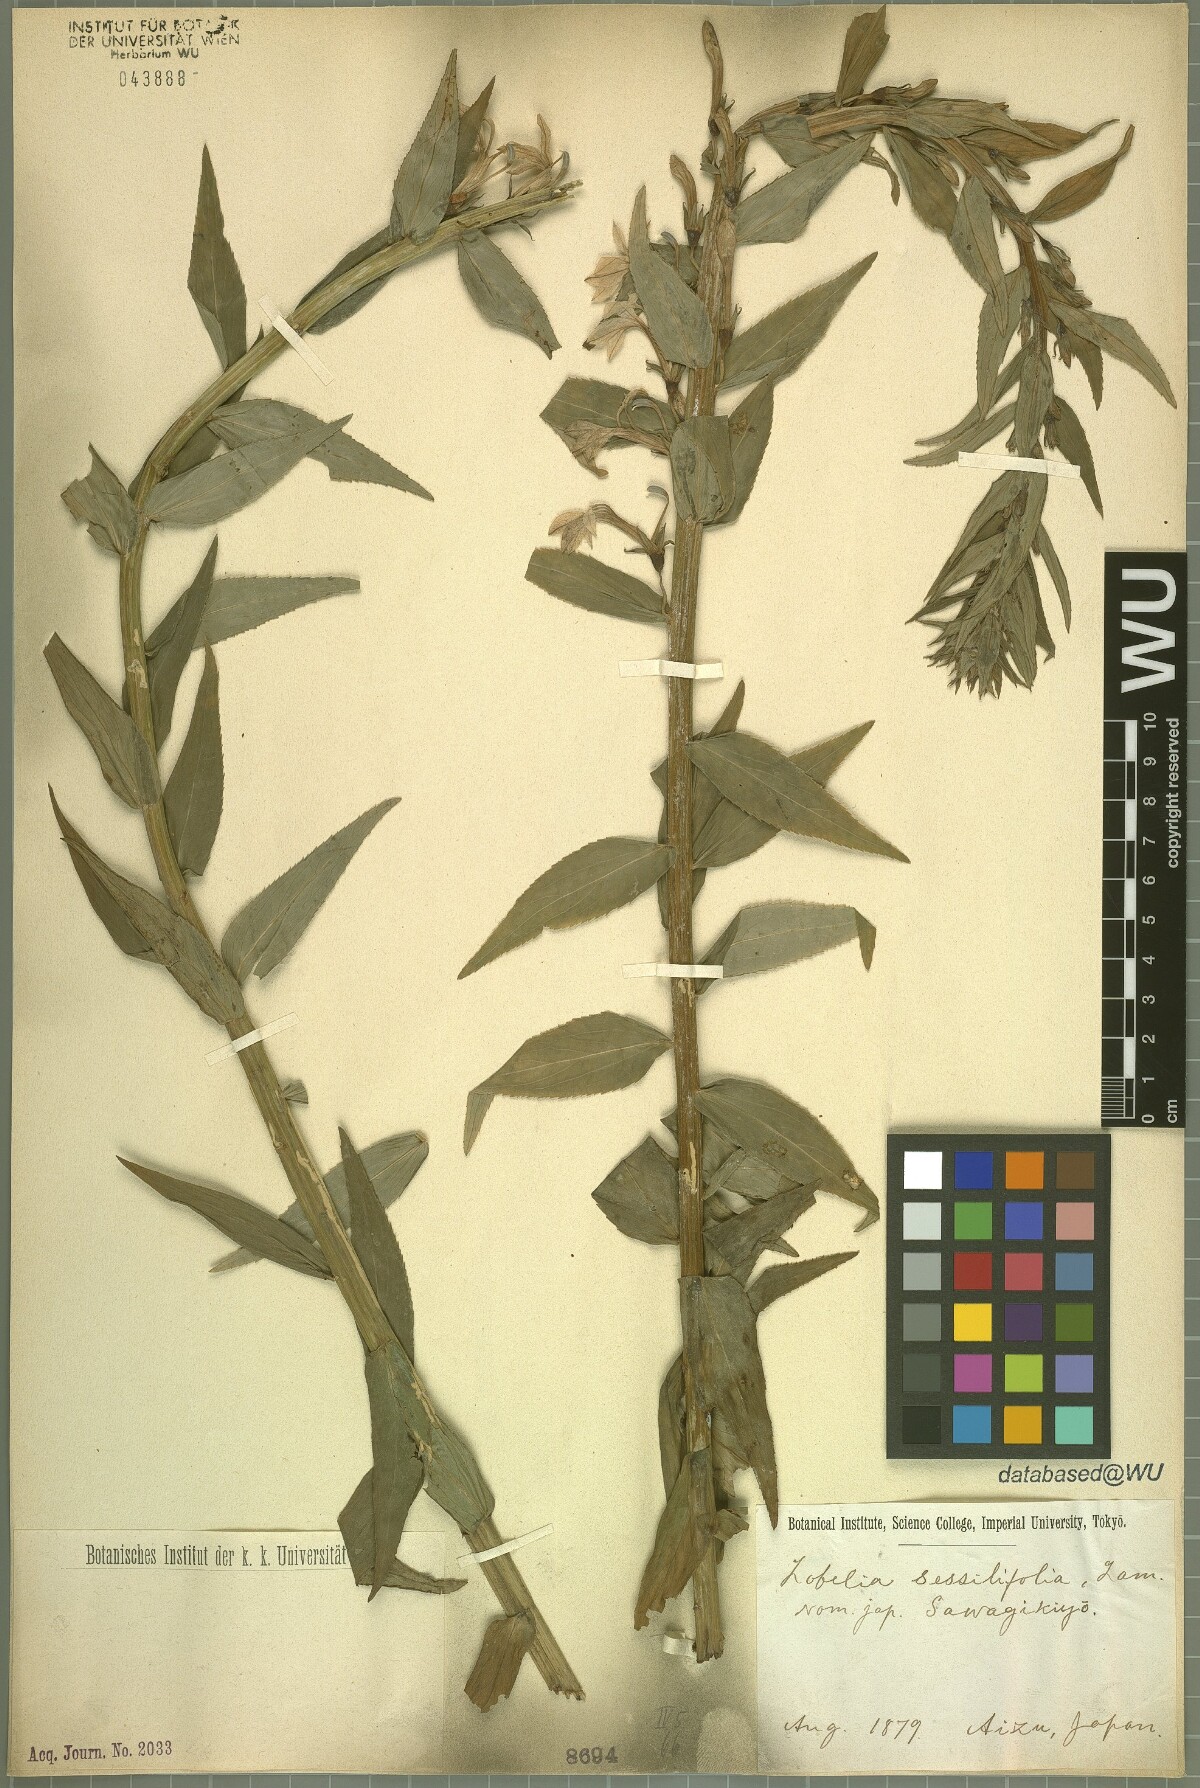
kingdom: Plantae
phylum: Tracheophyta
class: Magnoliopsida
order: Asterales
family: Campanulaceae
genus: Lobelia
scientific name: Lobelia sessilifolia
